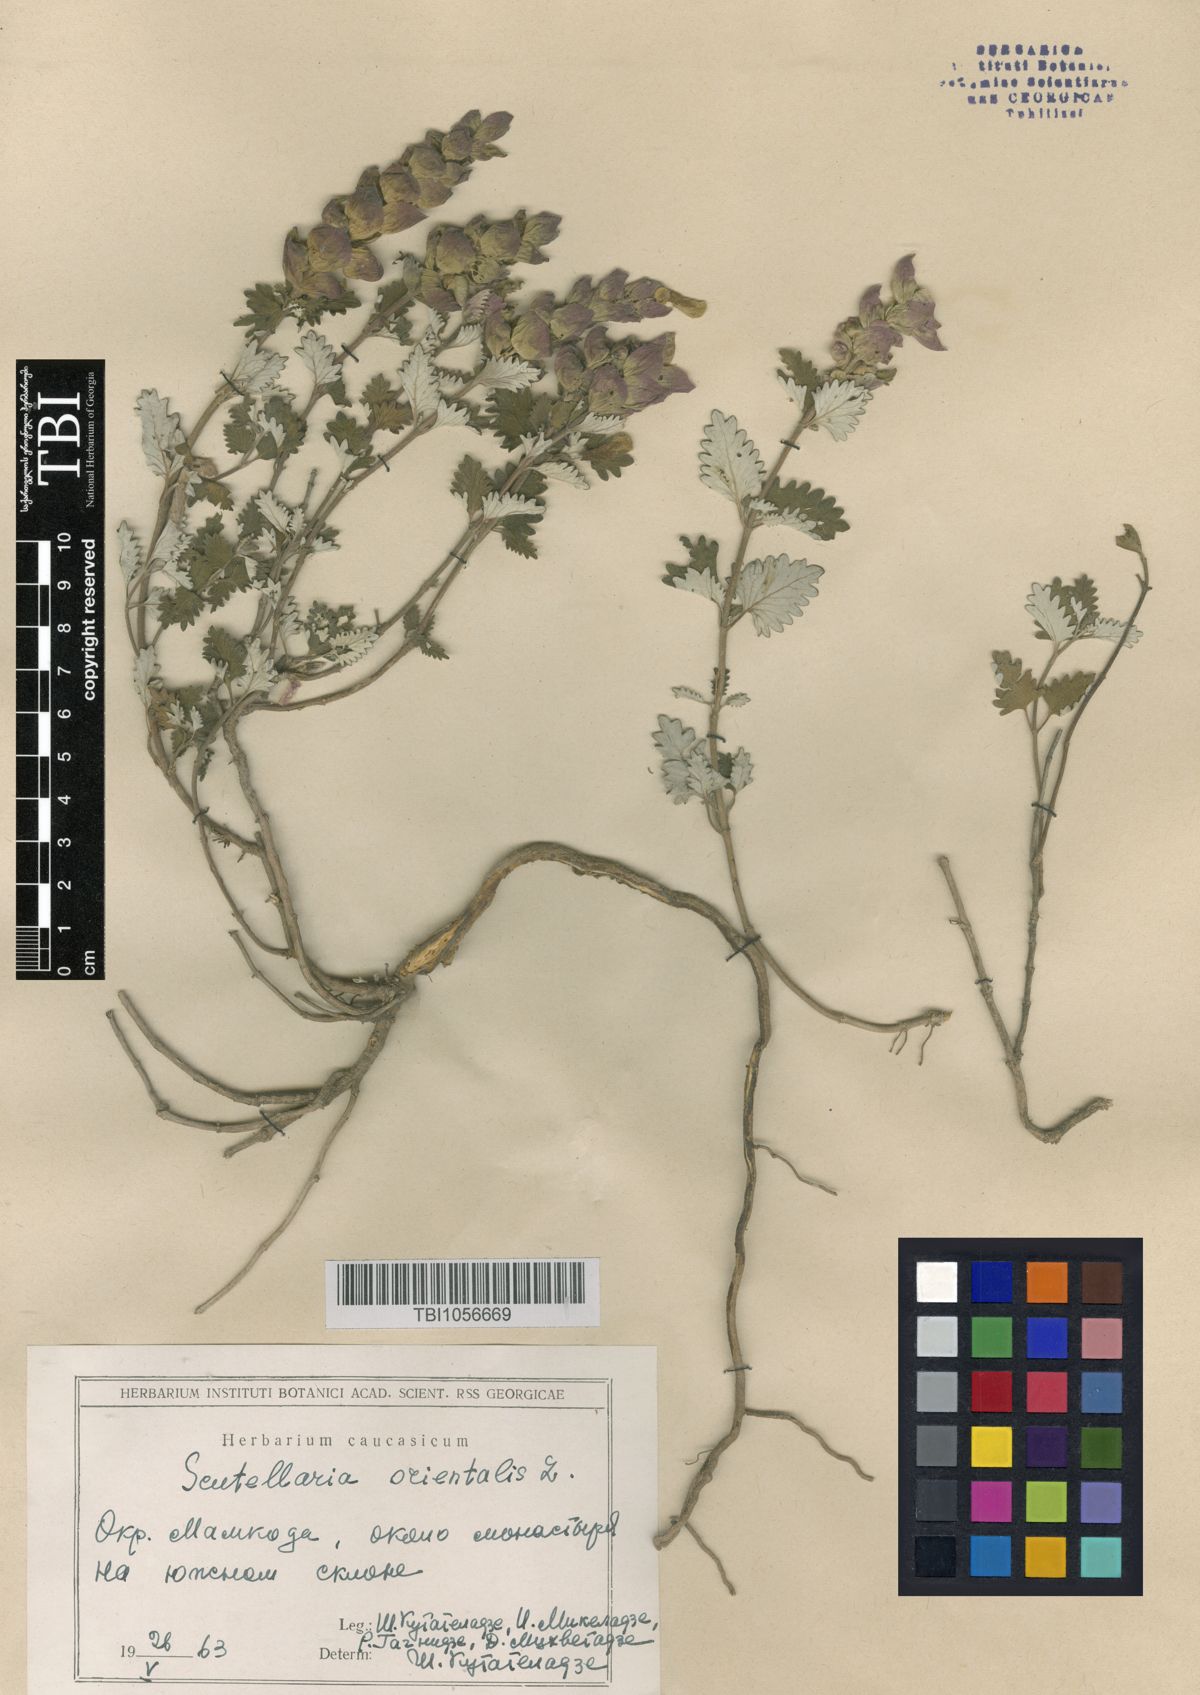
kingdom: Plantae
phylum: Tracheophyta
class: Magnoliopsida
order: Lamiales
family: Lamiaceae
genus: Scutellaria
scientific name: Scutellaria orientalis
